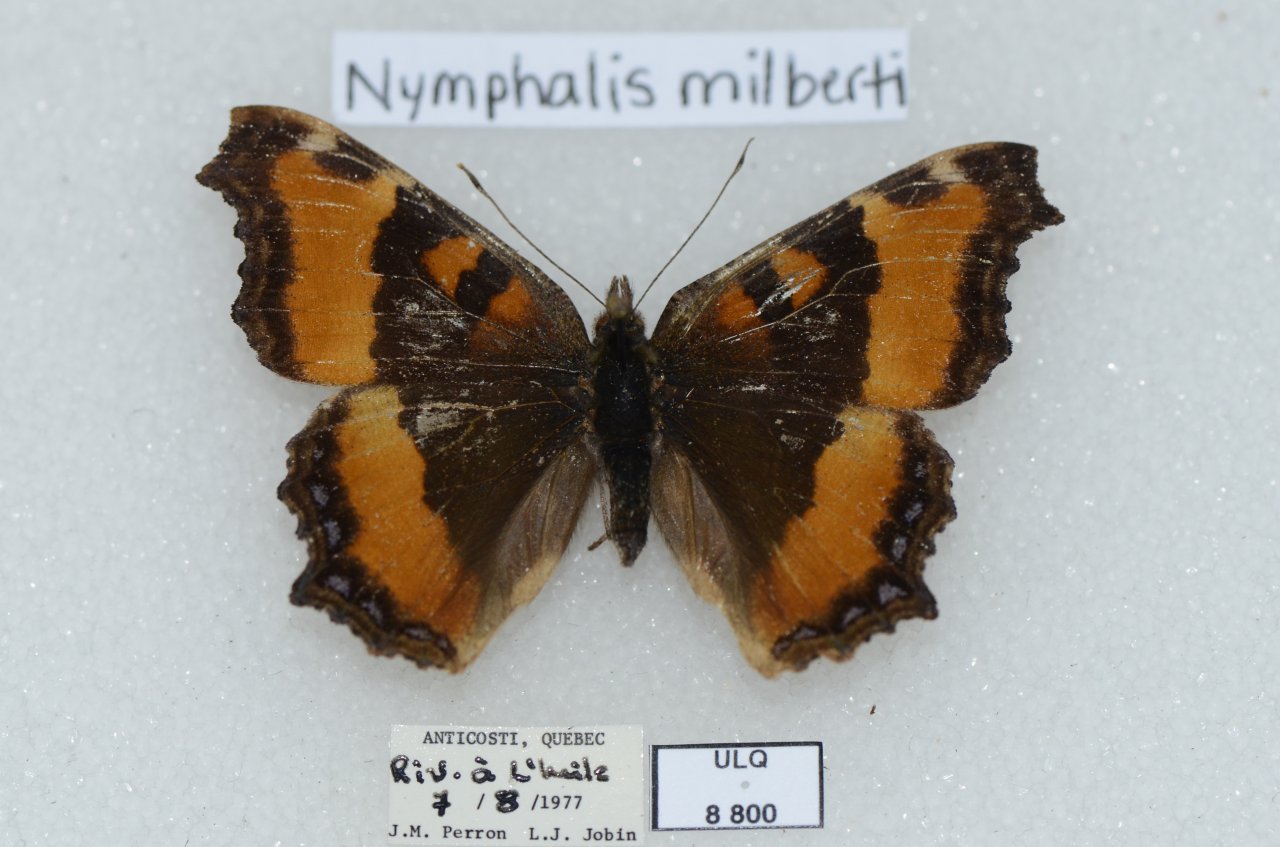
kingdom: Animalia
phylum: Arthropoda
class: Insecta
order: Lepidoptera
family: Nymphalidae
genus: Aglais
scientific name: Aglais milberti
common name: Milbert's Tortoiseshell
